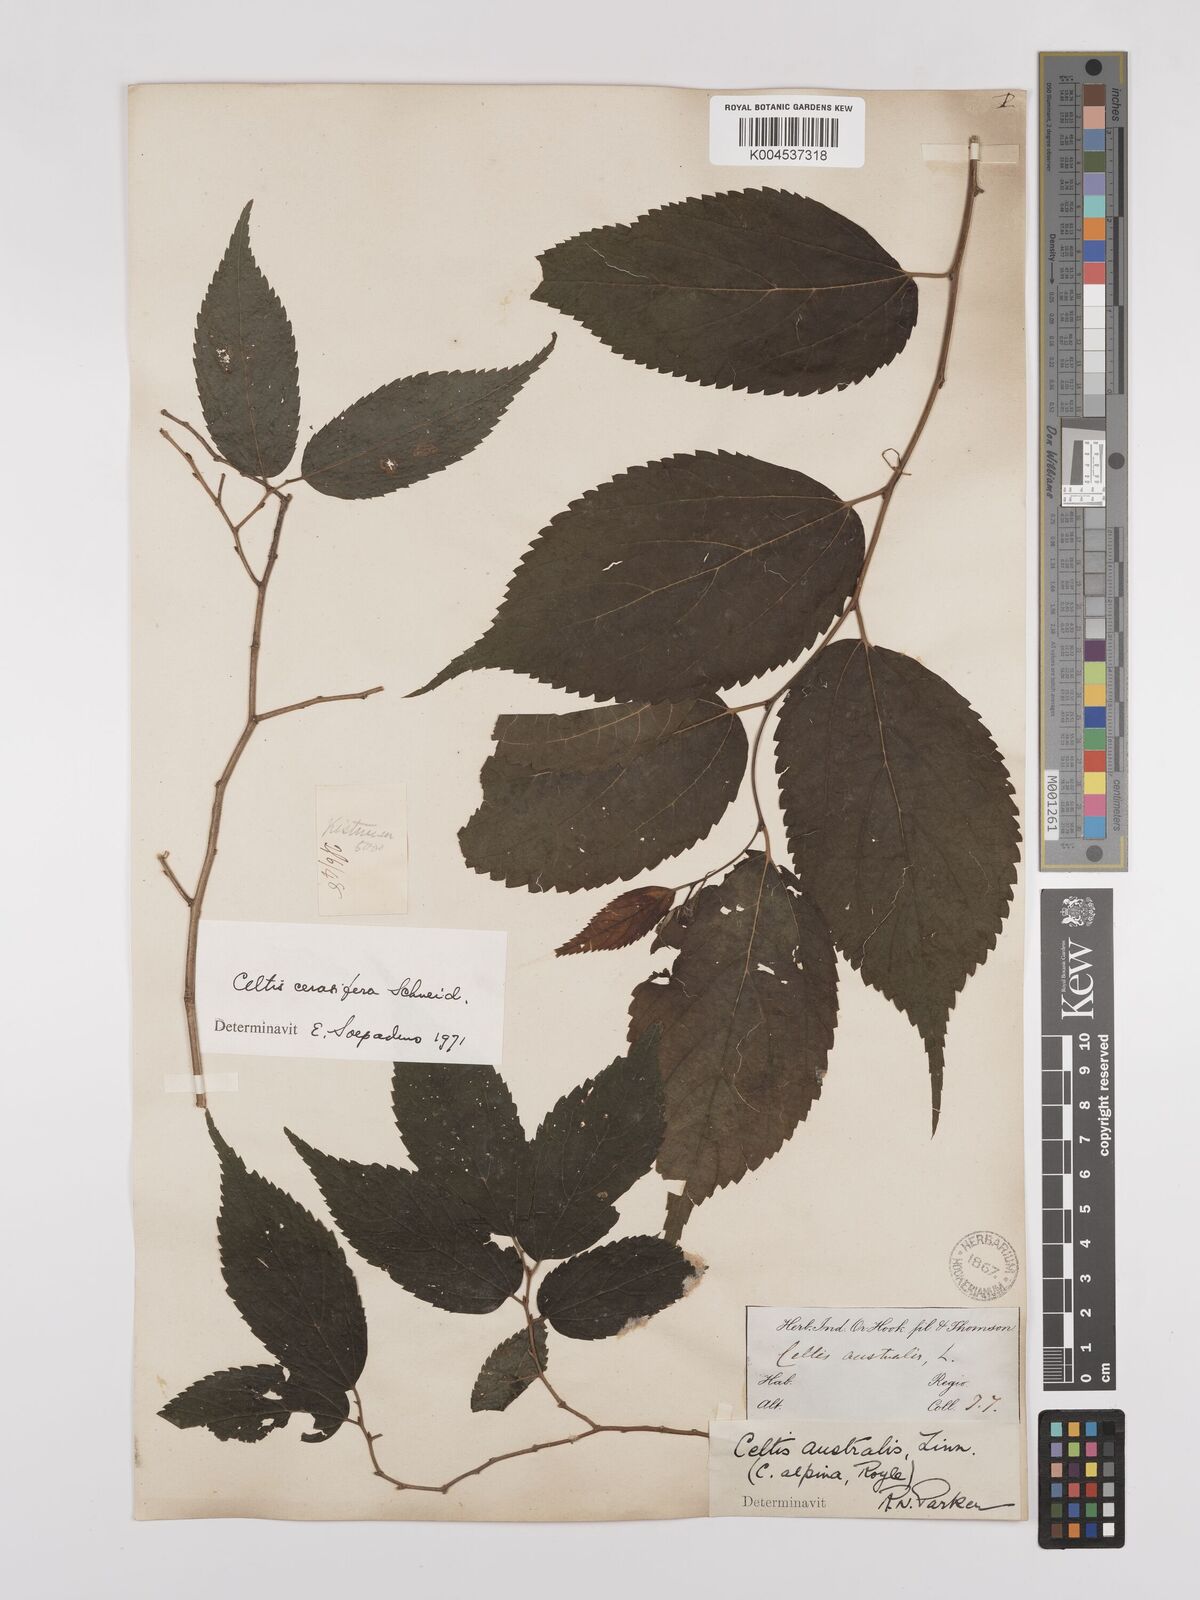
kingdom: Plantae
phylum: Tracheophyta
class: Magnoliopsida
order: Rosales
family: Cannabaceae
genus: Celtis
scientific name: Celtis cerasifera
